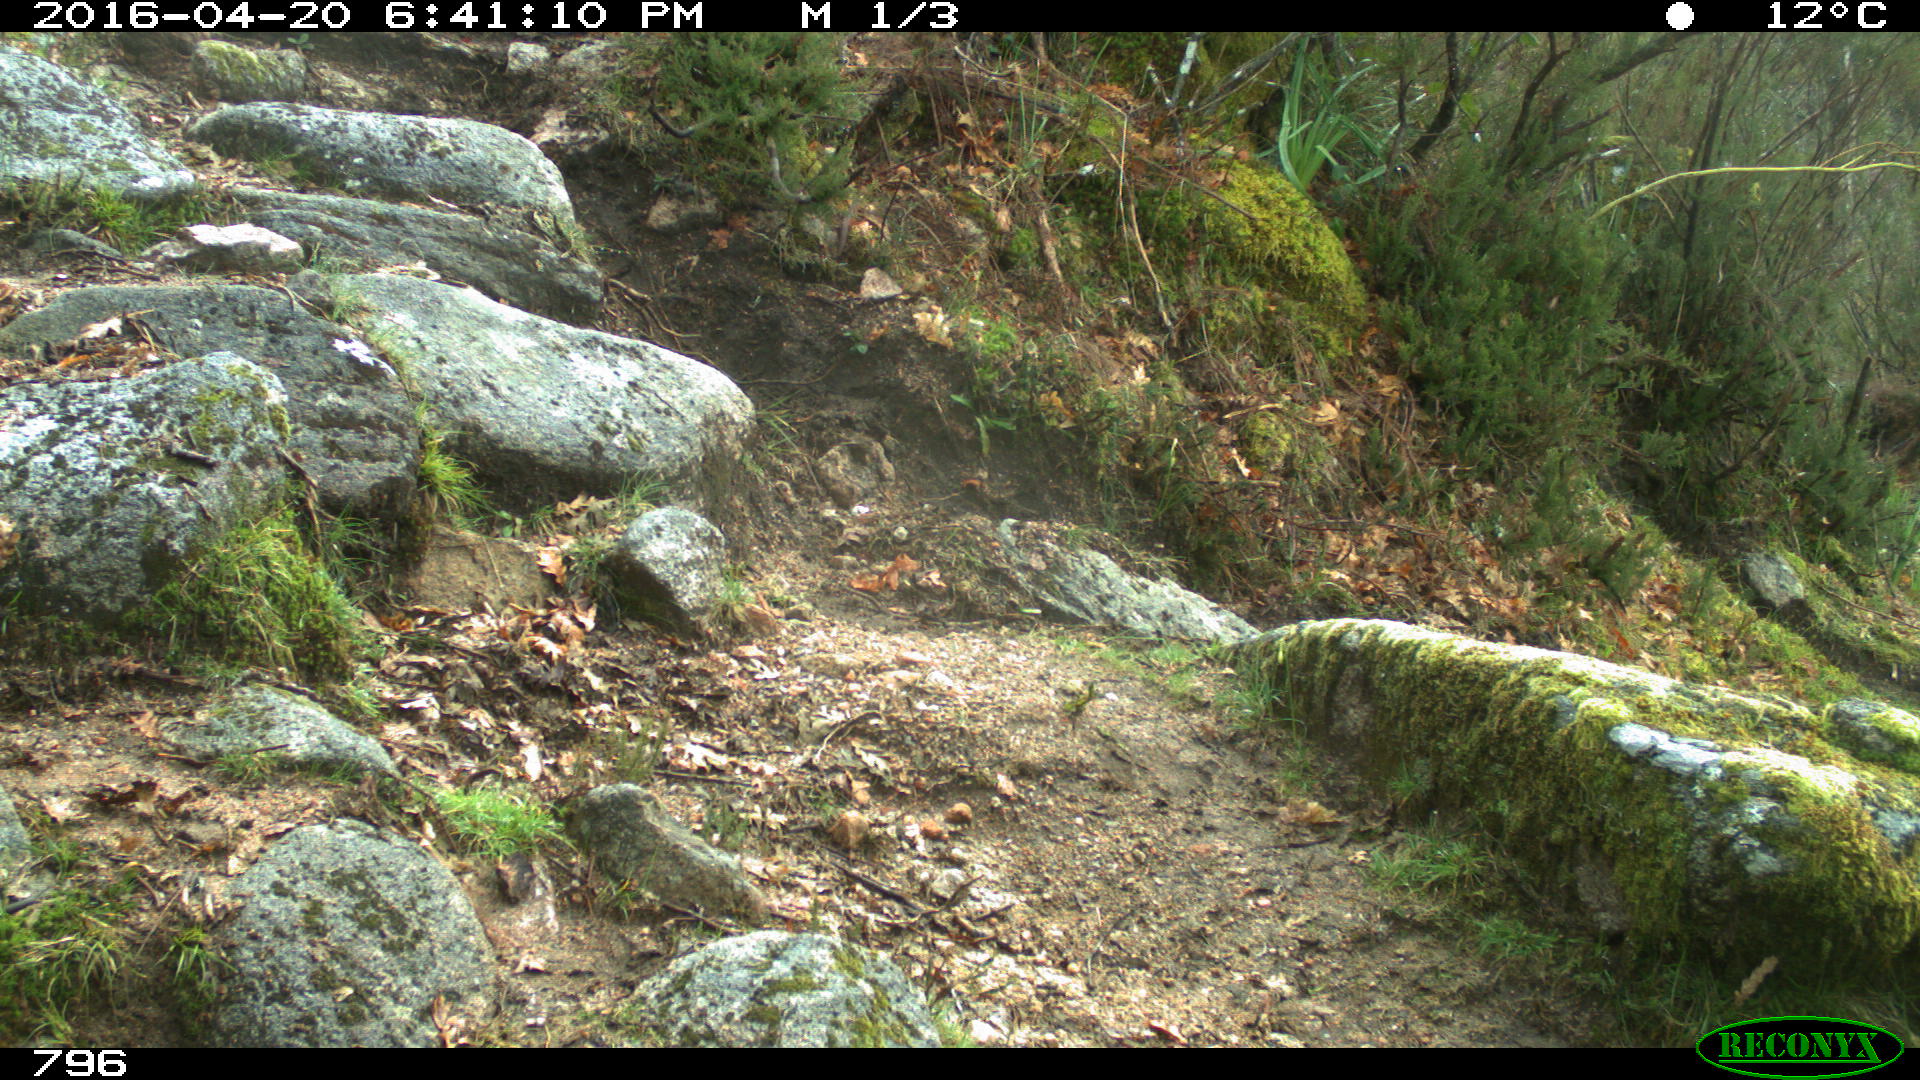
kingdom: Animalia
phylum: Chordata
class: Mammalia
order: Artiodactyla
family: Bovidae
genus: Bos
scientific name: Bos taurus
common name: Domesticated cattle
